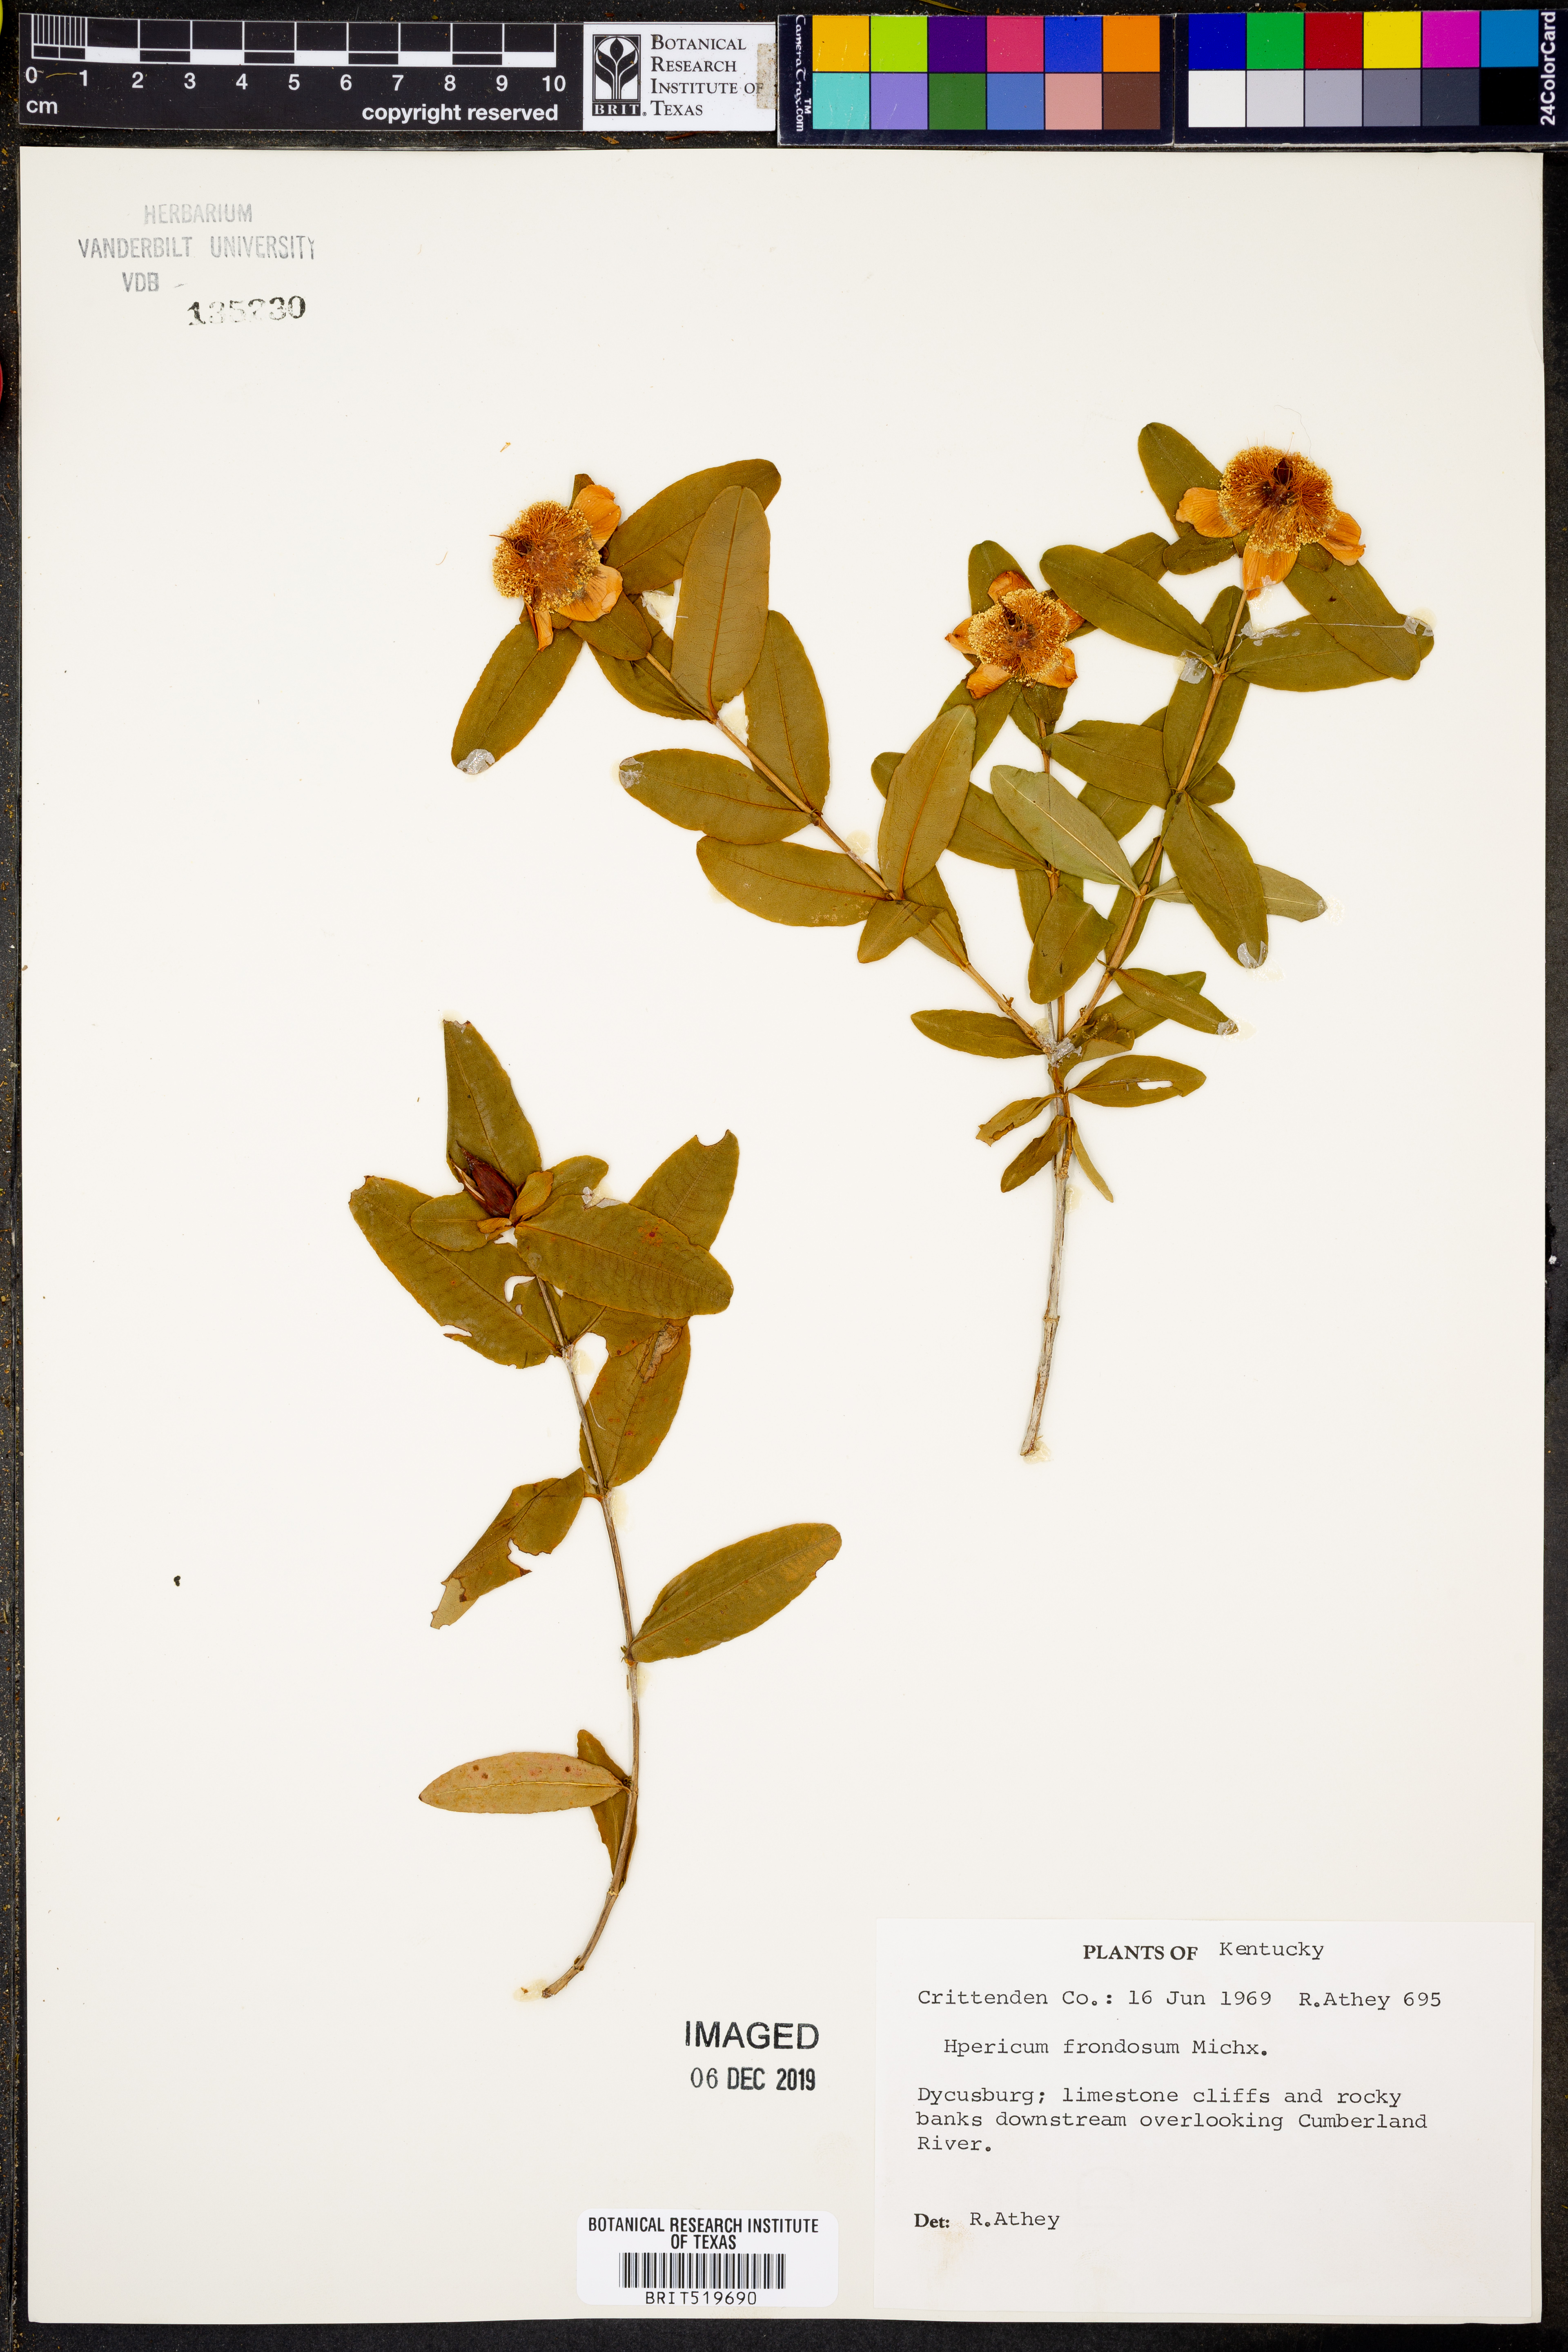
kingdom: Plantae
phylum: Tracheophyta
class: Magnoliopsida
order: Malpighiales
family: Hypericaceae
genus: Hypericum
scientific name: Hypericum frondosum
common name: Golden st. john's-wort
